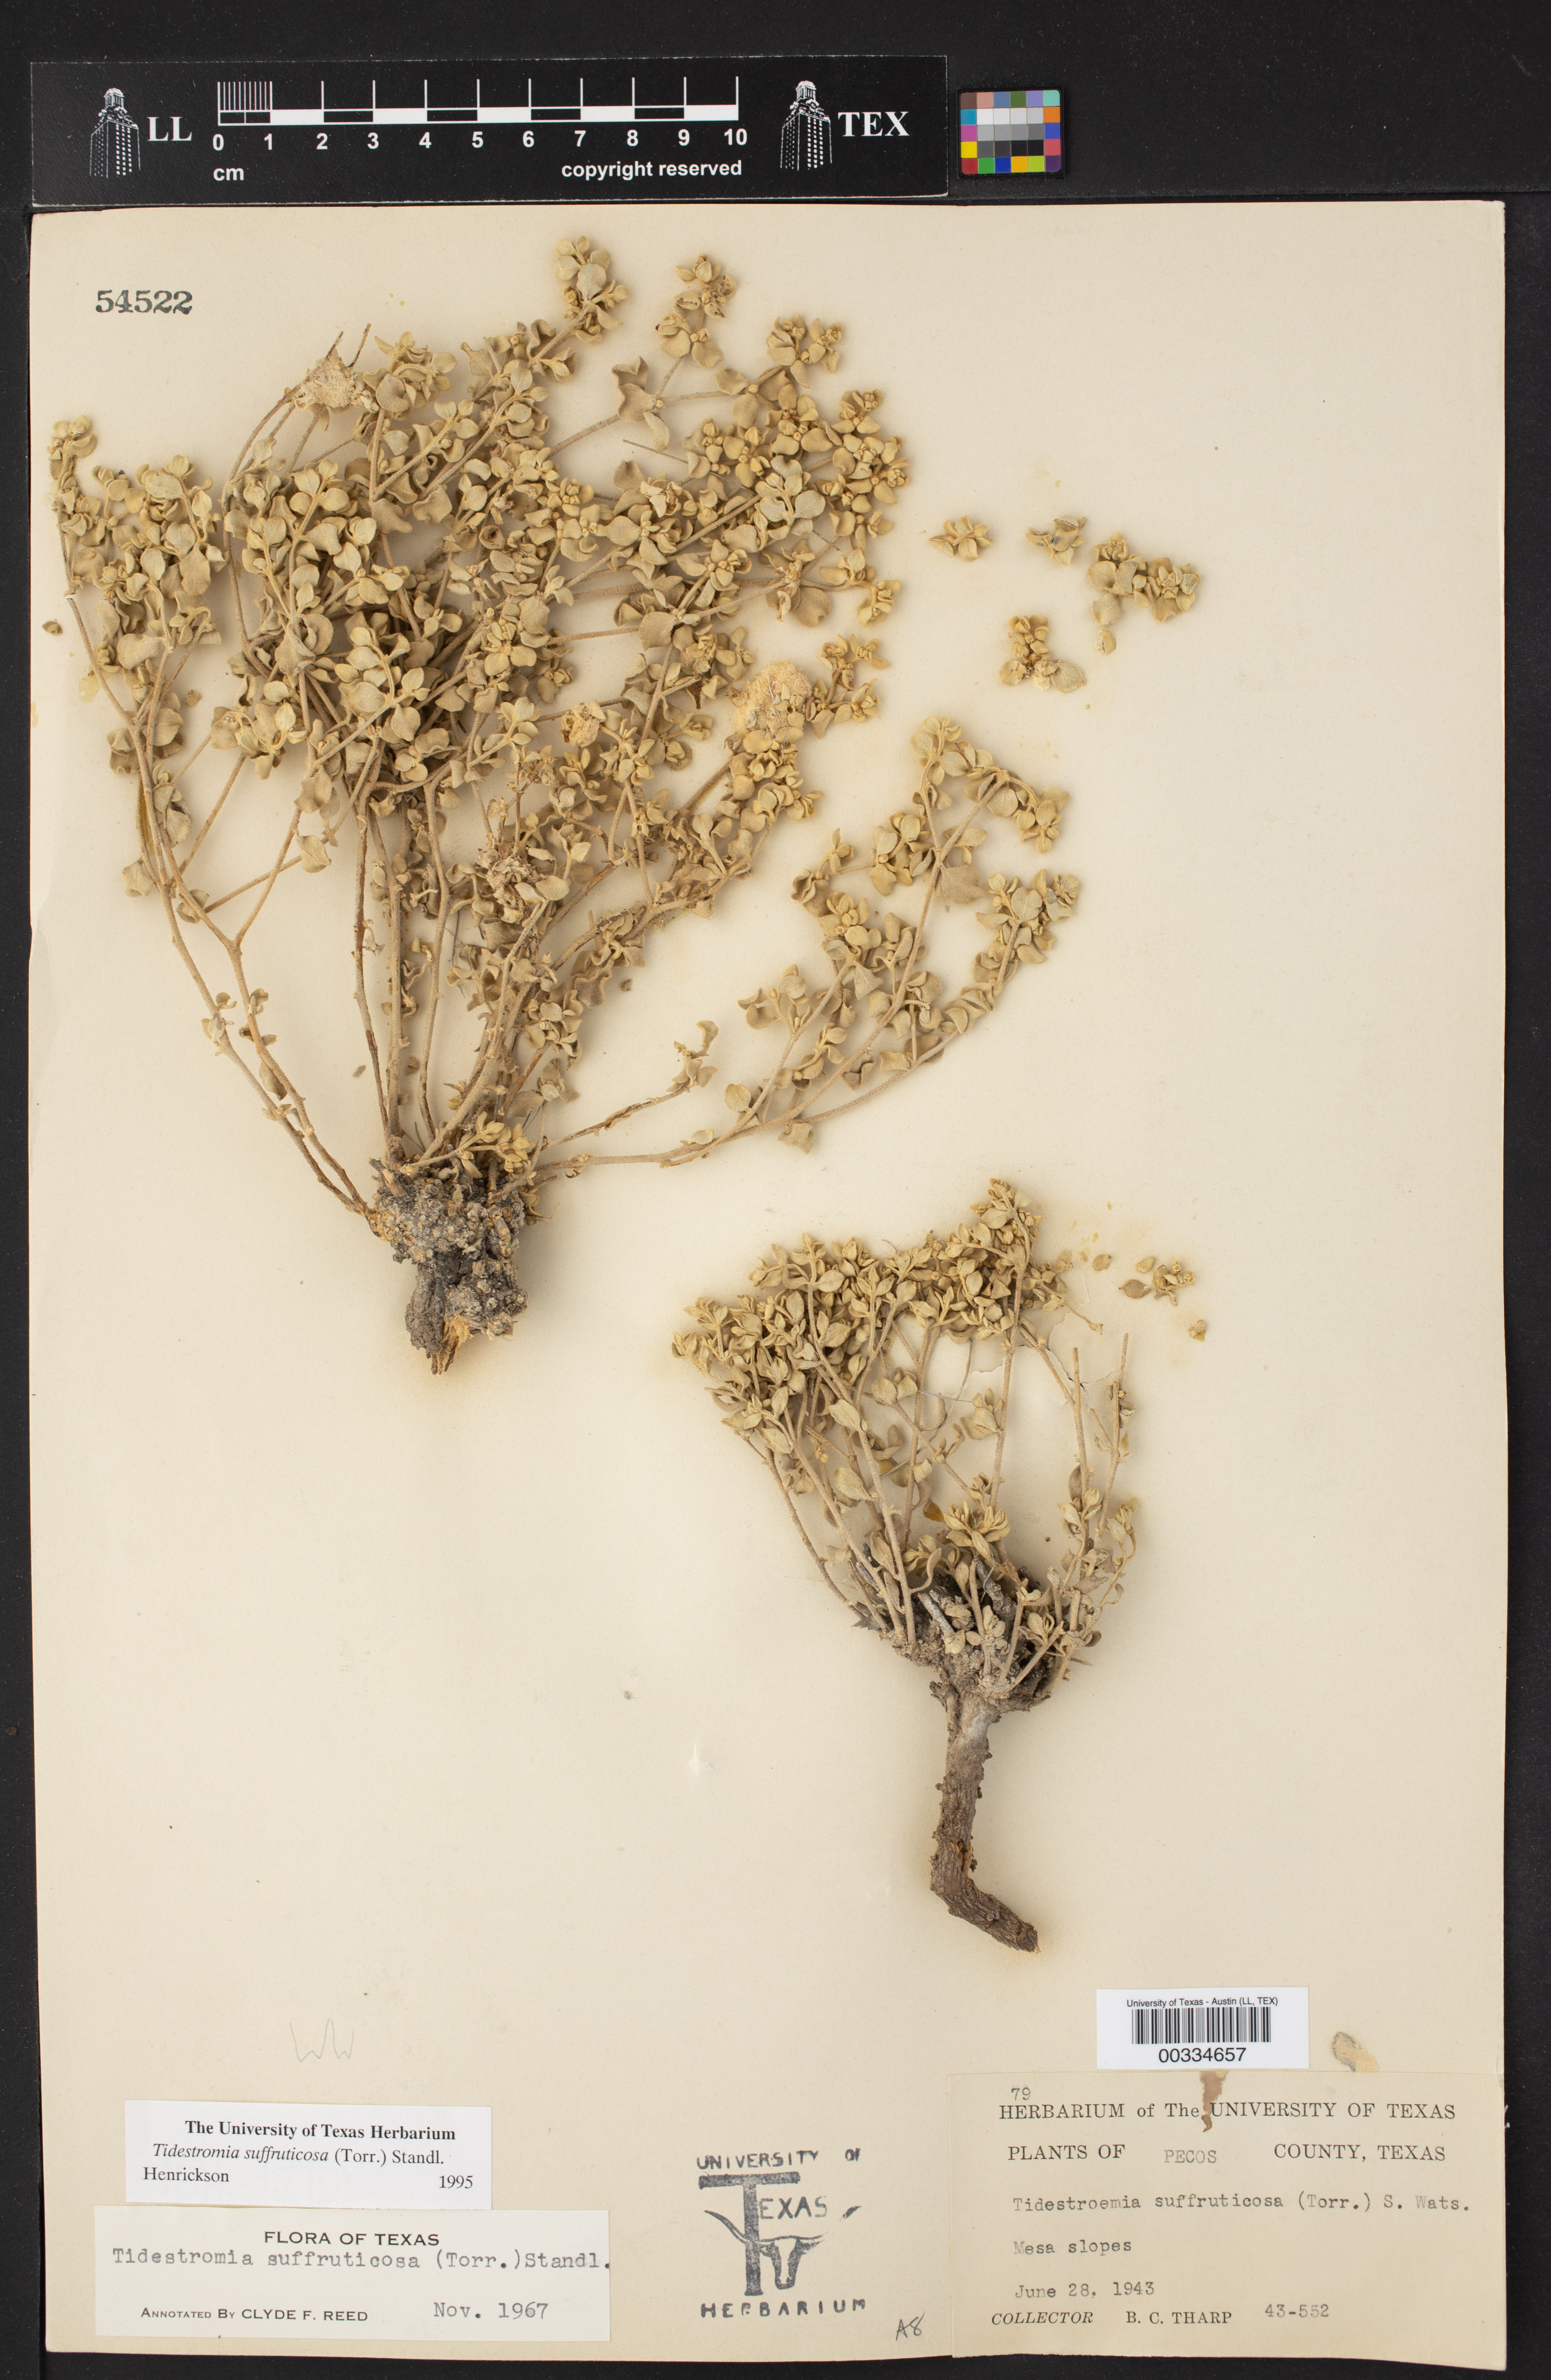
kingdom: Plantae
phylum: Tracheophyta
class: Magnoliopsida
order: Caryophyllales
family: Amaranthaceae
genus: Tidestromia
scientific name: Tidestromia suffruticosa
